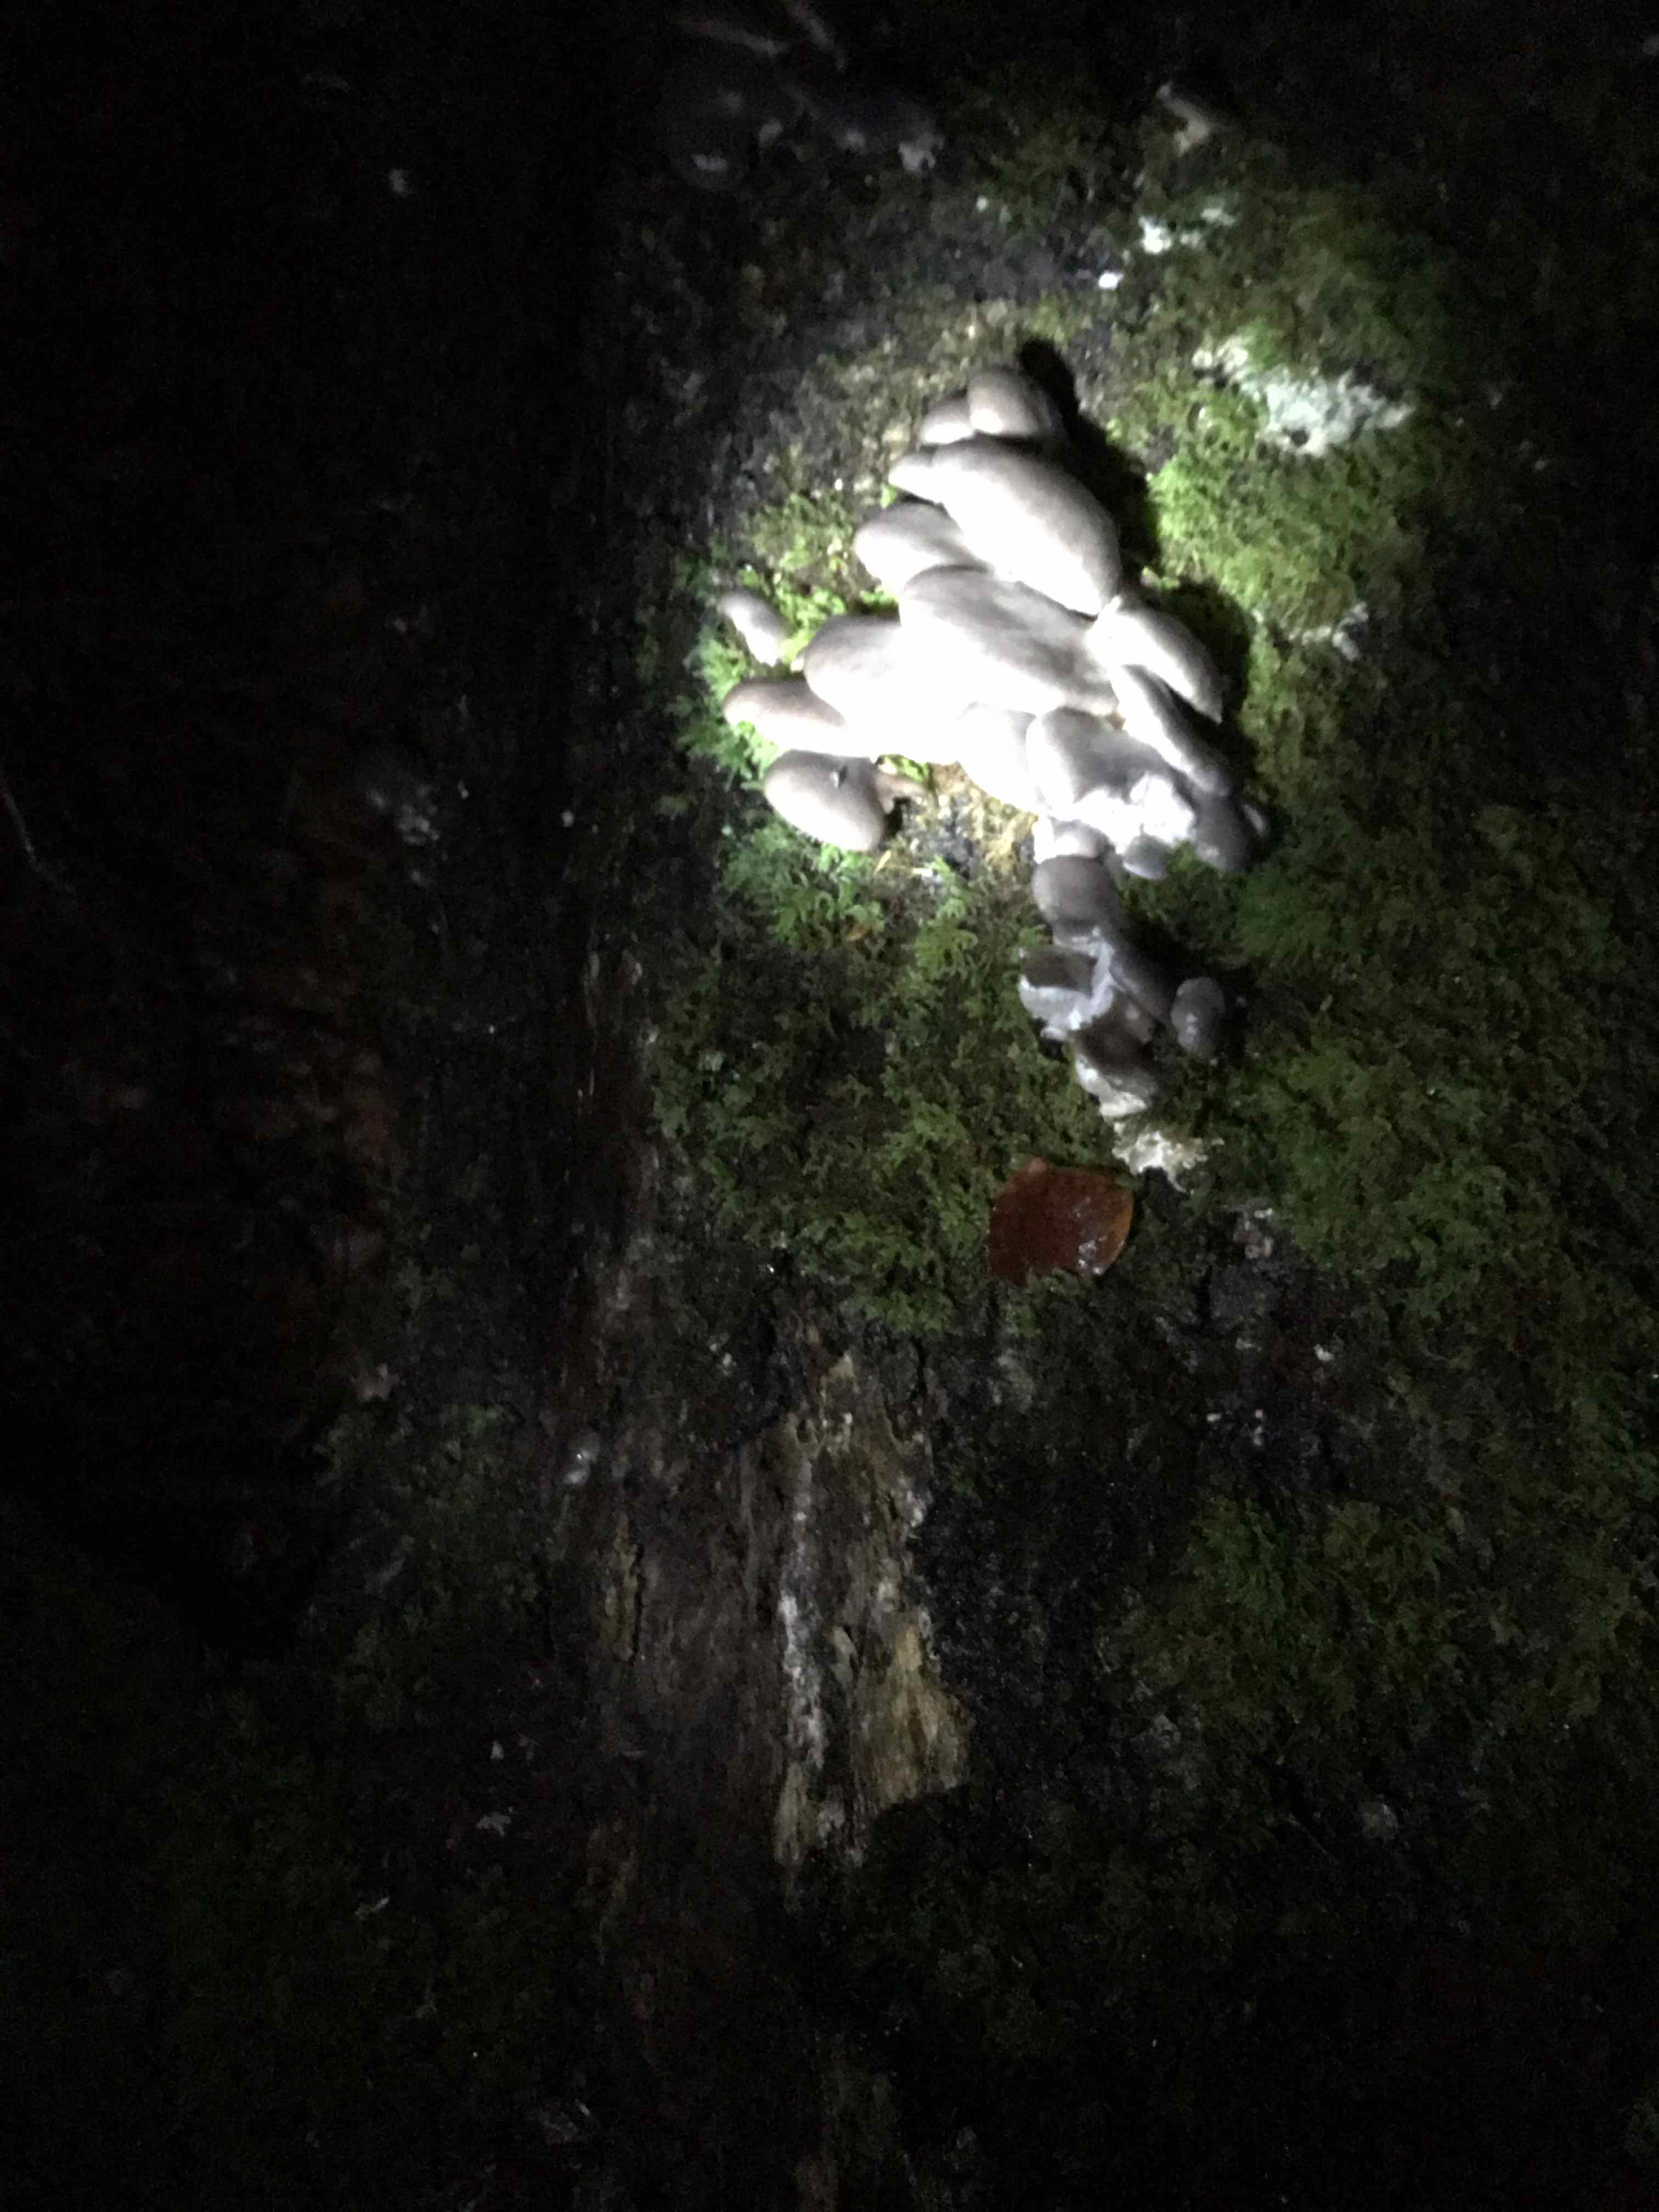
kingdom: Fungi
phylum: Basidiomycota
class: Agaricomycetes
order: Agaricales
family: Pleurotaceae
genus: Pleurotus
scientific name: Pleurotus ostreatus
